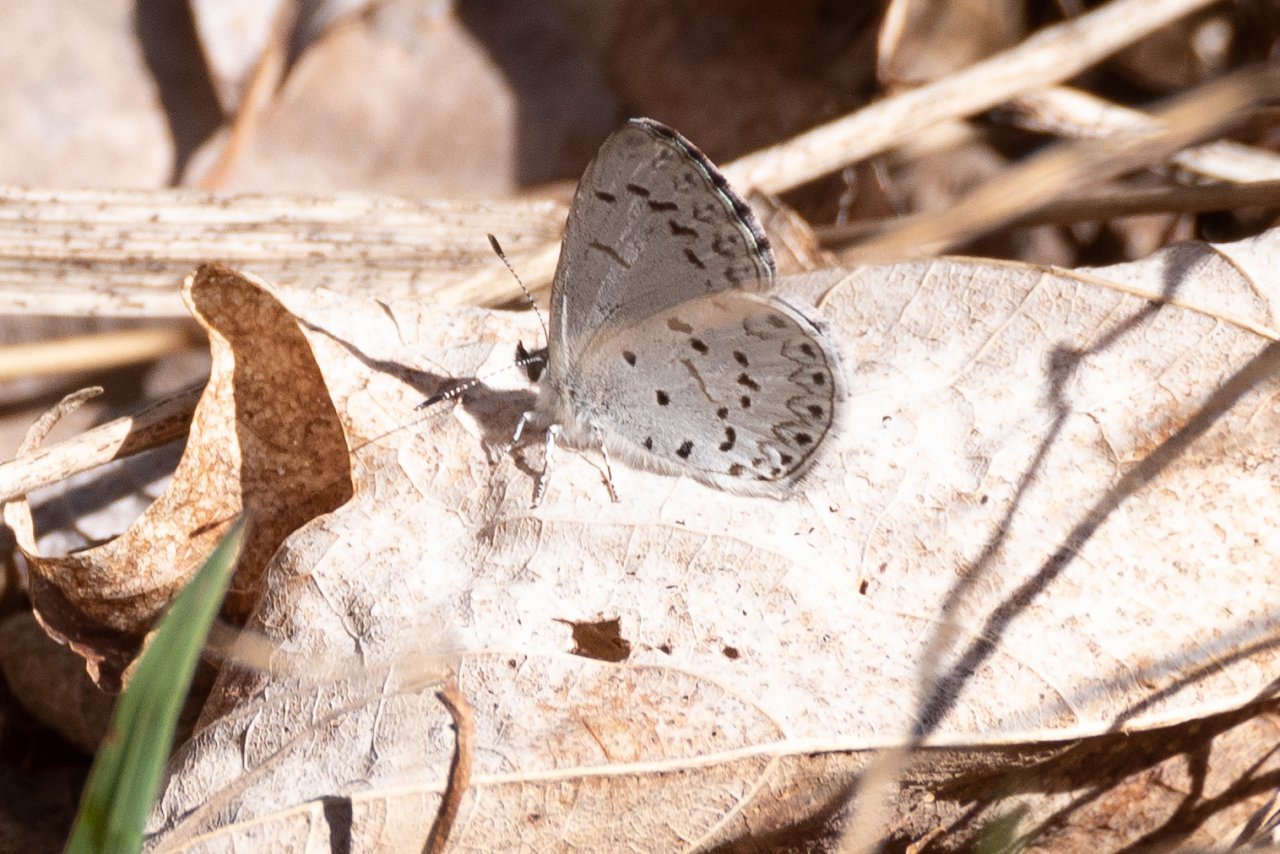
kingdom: Animalia
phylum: Arthropoda
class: Insecta
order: Lepidoptera
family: Lycaenidae
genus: Celastrina
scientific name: Celastrina
